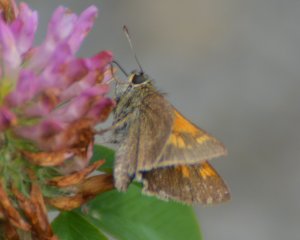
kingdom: Animalia
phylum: Arthropoda
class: Insecta
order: Lepidoptera
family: Hesperiidae
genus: Polites
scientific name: Polites themistocles
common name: Tawny-edged Skipper
